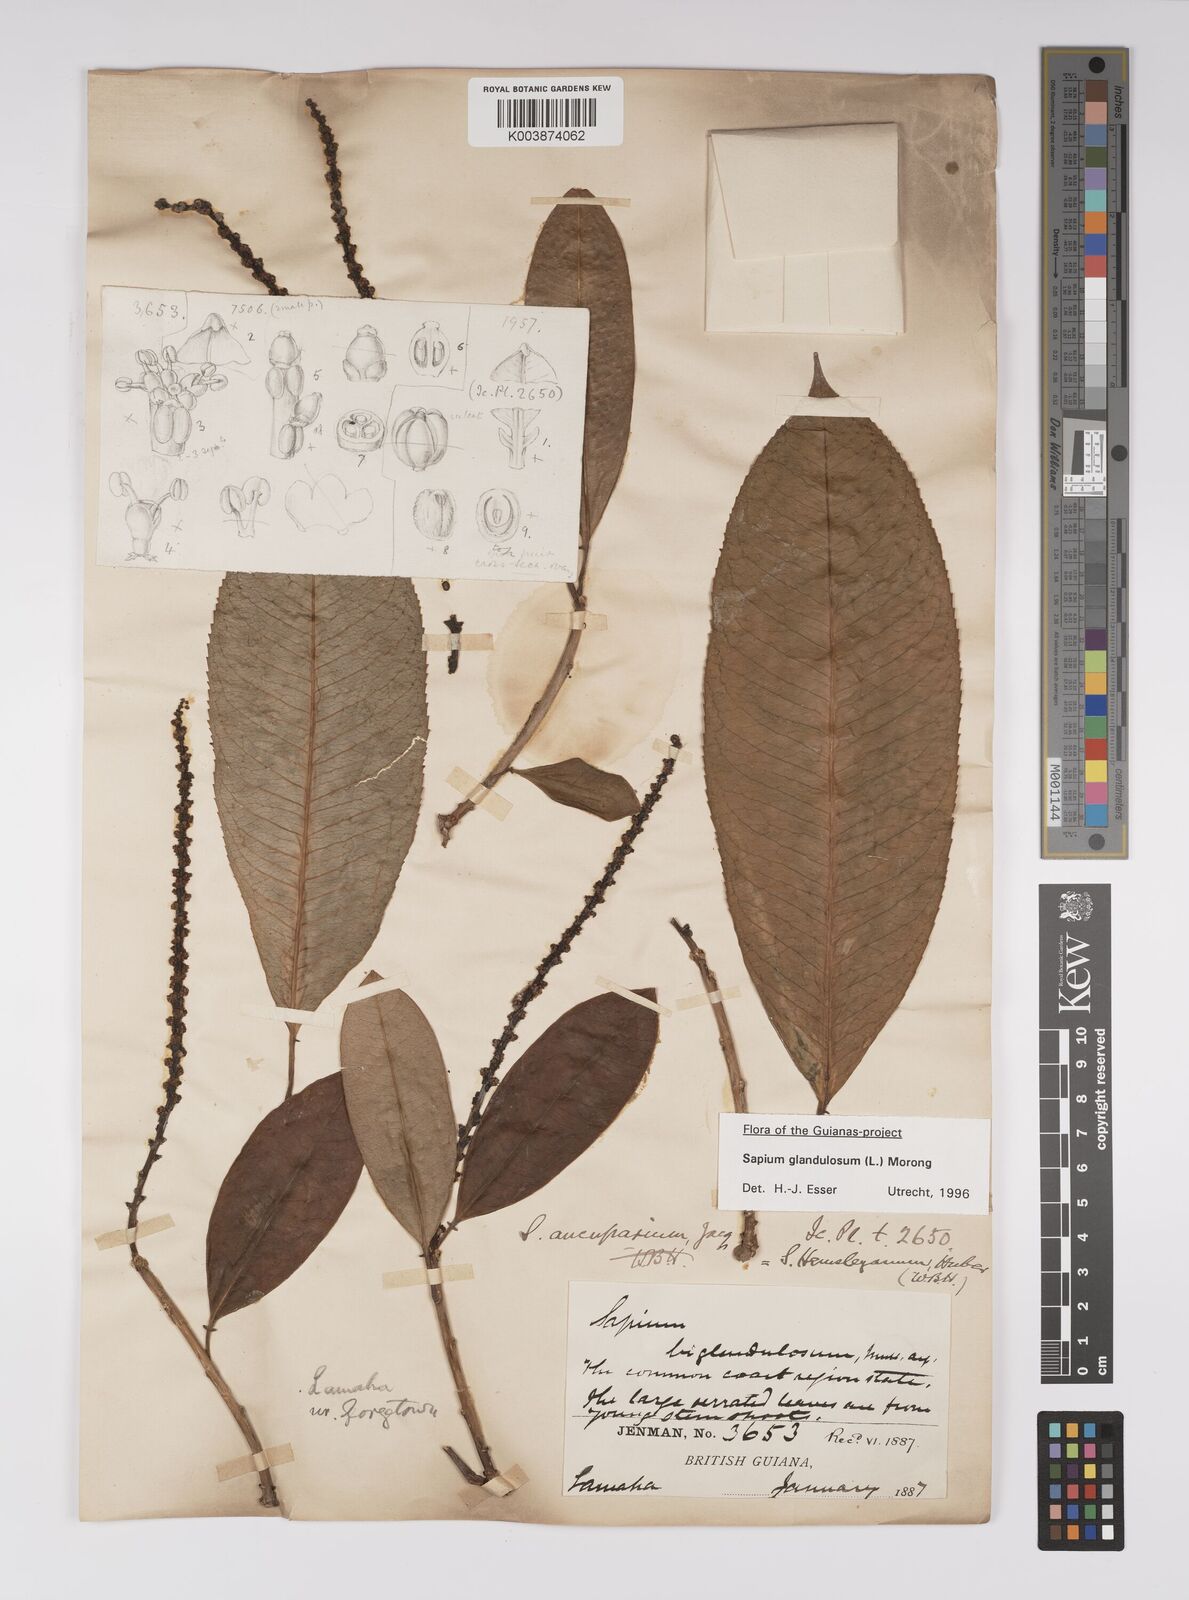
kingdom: Plantae
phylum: Tracheophyta
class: Magnoliopsida
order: Malpighiales
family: Euphorbiaceae
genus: Sapium
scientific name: Sapium glandulosum
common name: Milktree
